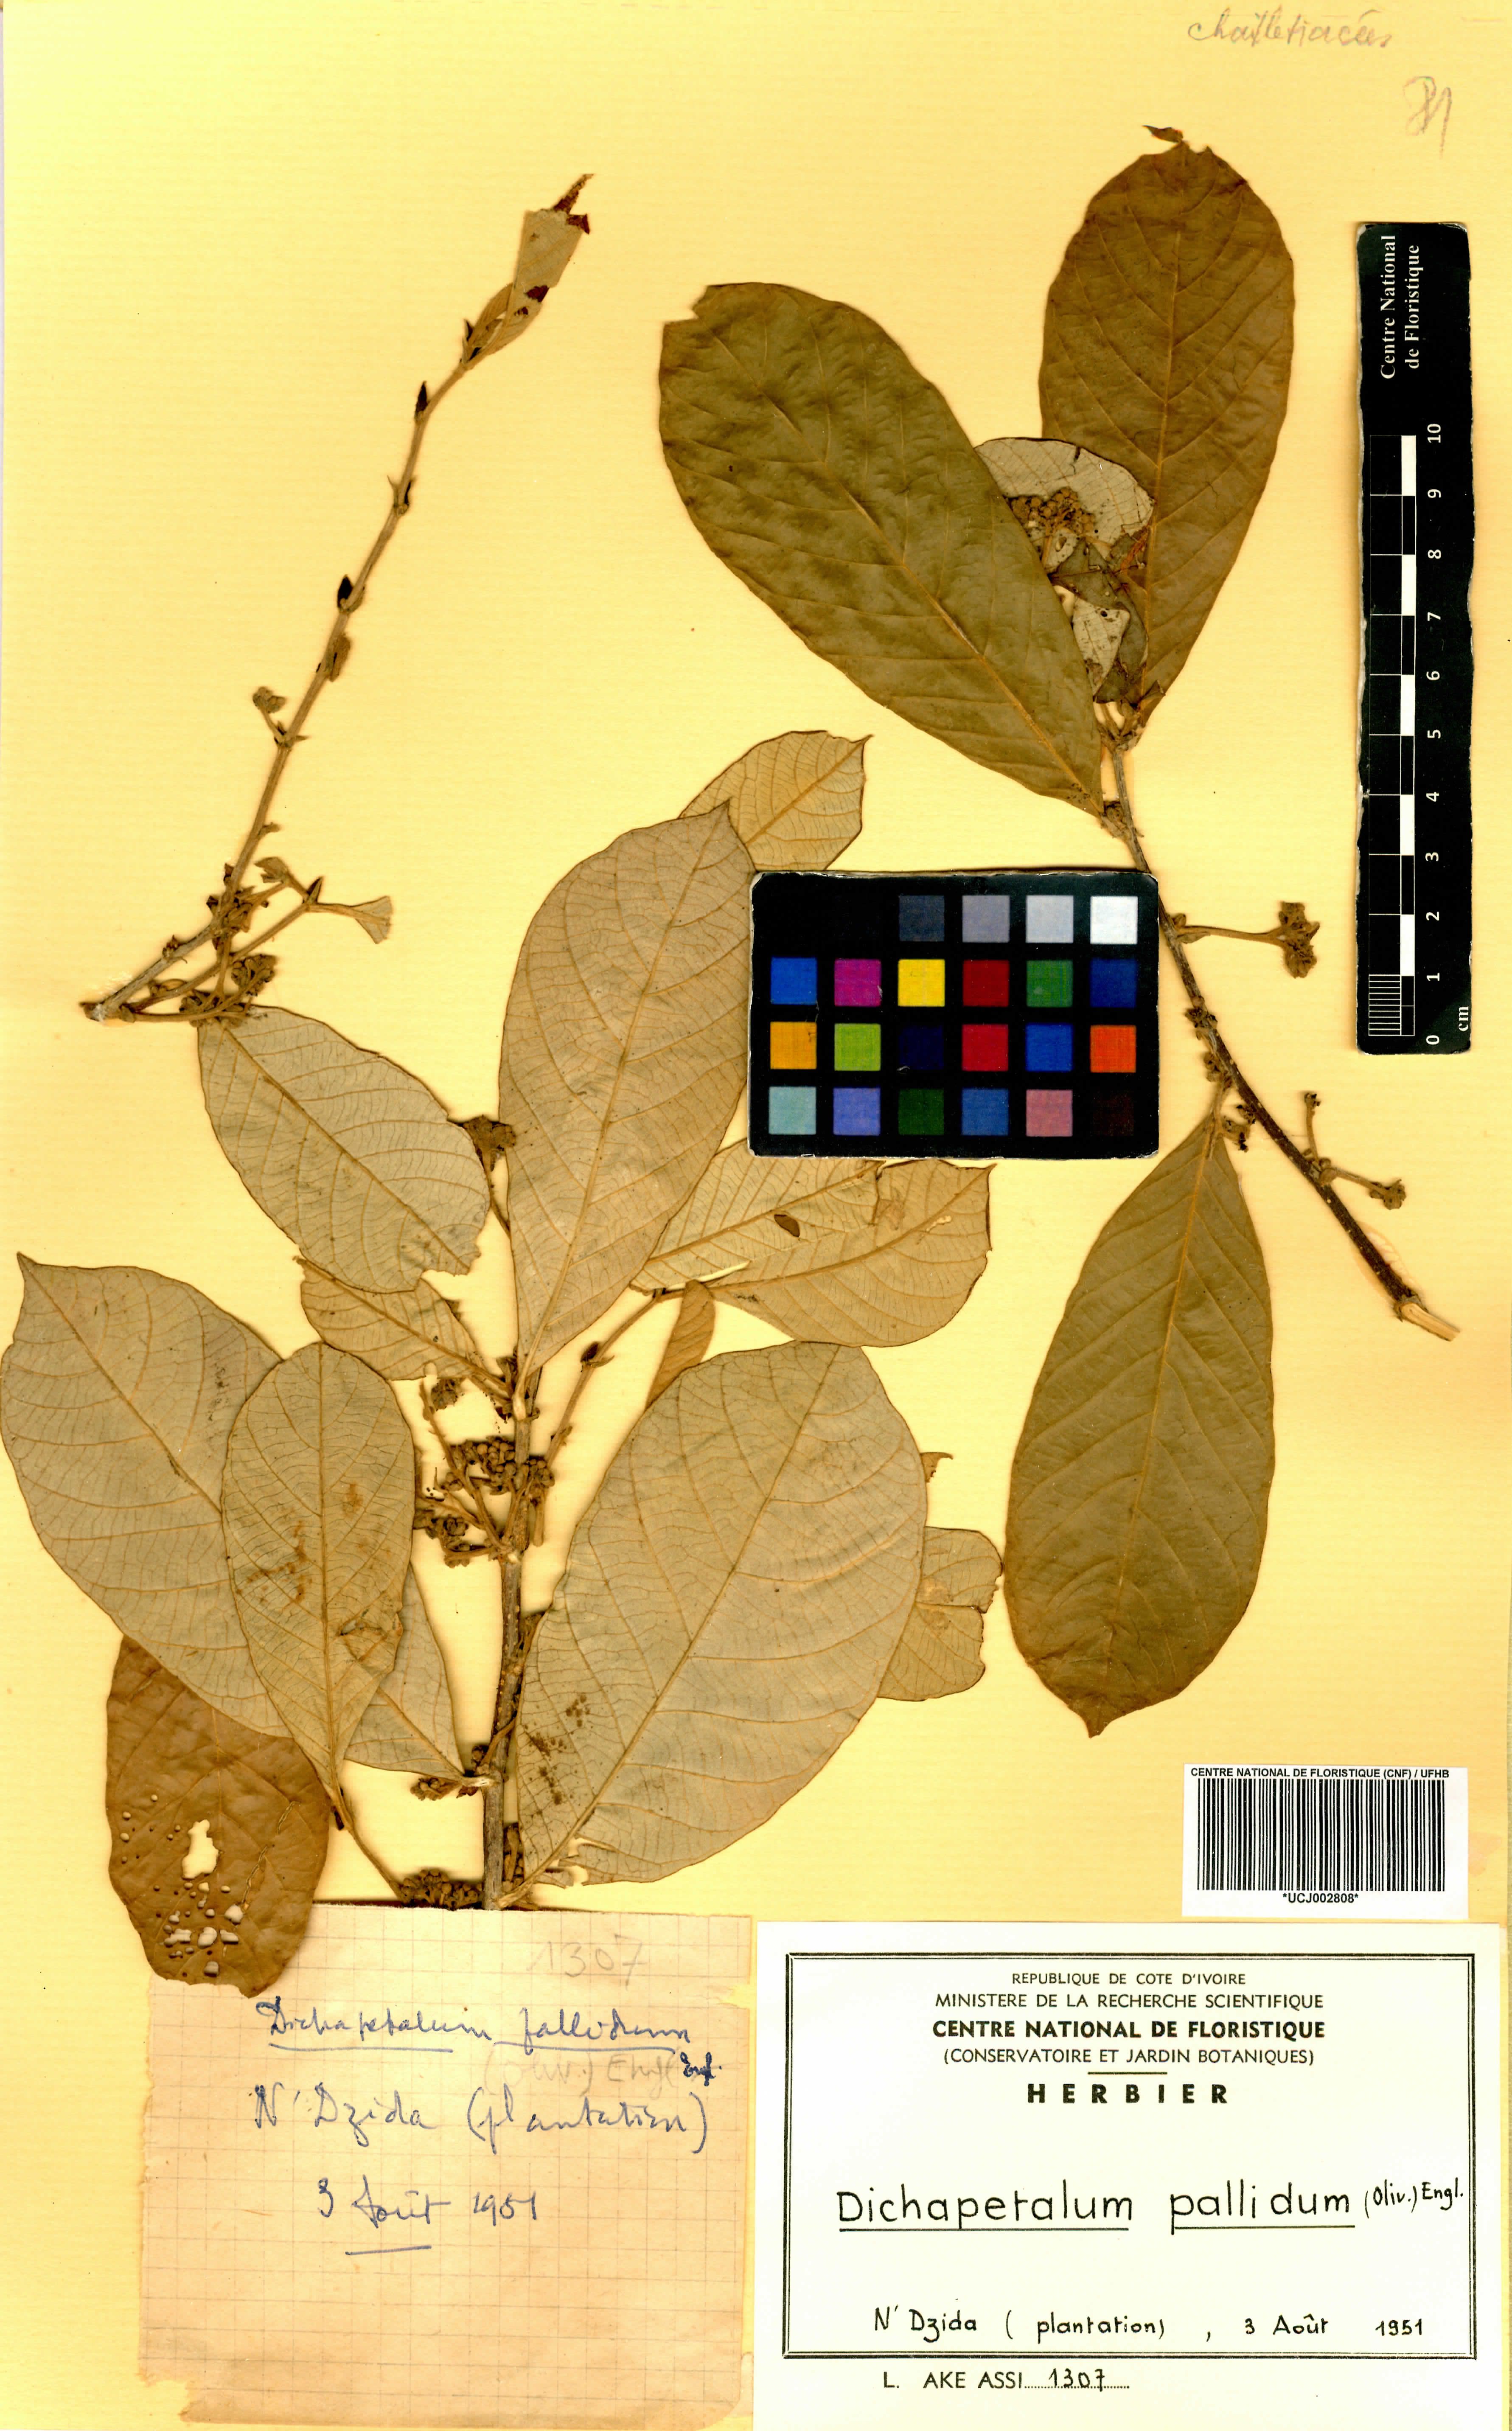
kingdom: Plantae
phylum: Tracheophyta
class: Magnoliopsida
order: Malpighiales
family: Dichapetalaceae
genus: Dichapetalum
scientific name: Dichapetalum pallidum
